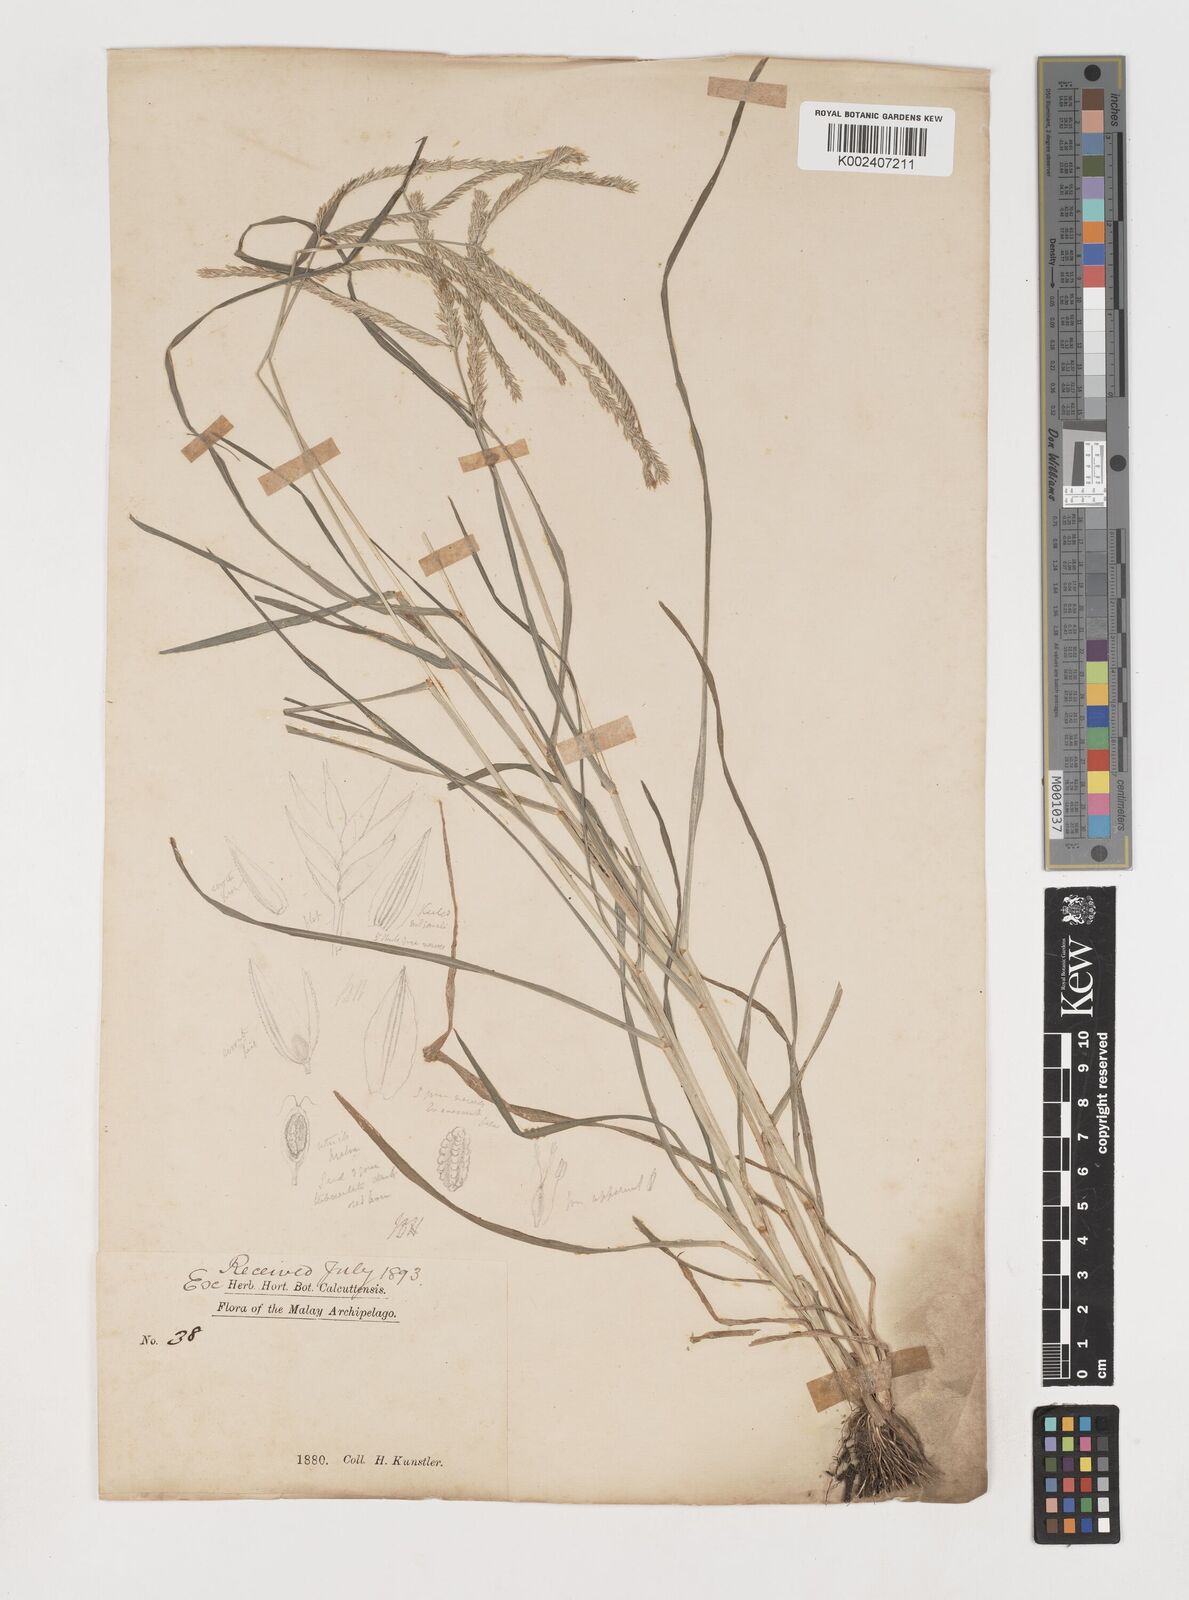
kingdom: Plantae
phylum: Tracheophyta
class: Liliopsida
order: Poales
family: Poaceae
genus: Eleusine
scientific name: Eleusine indica
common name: Yard-grass
